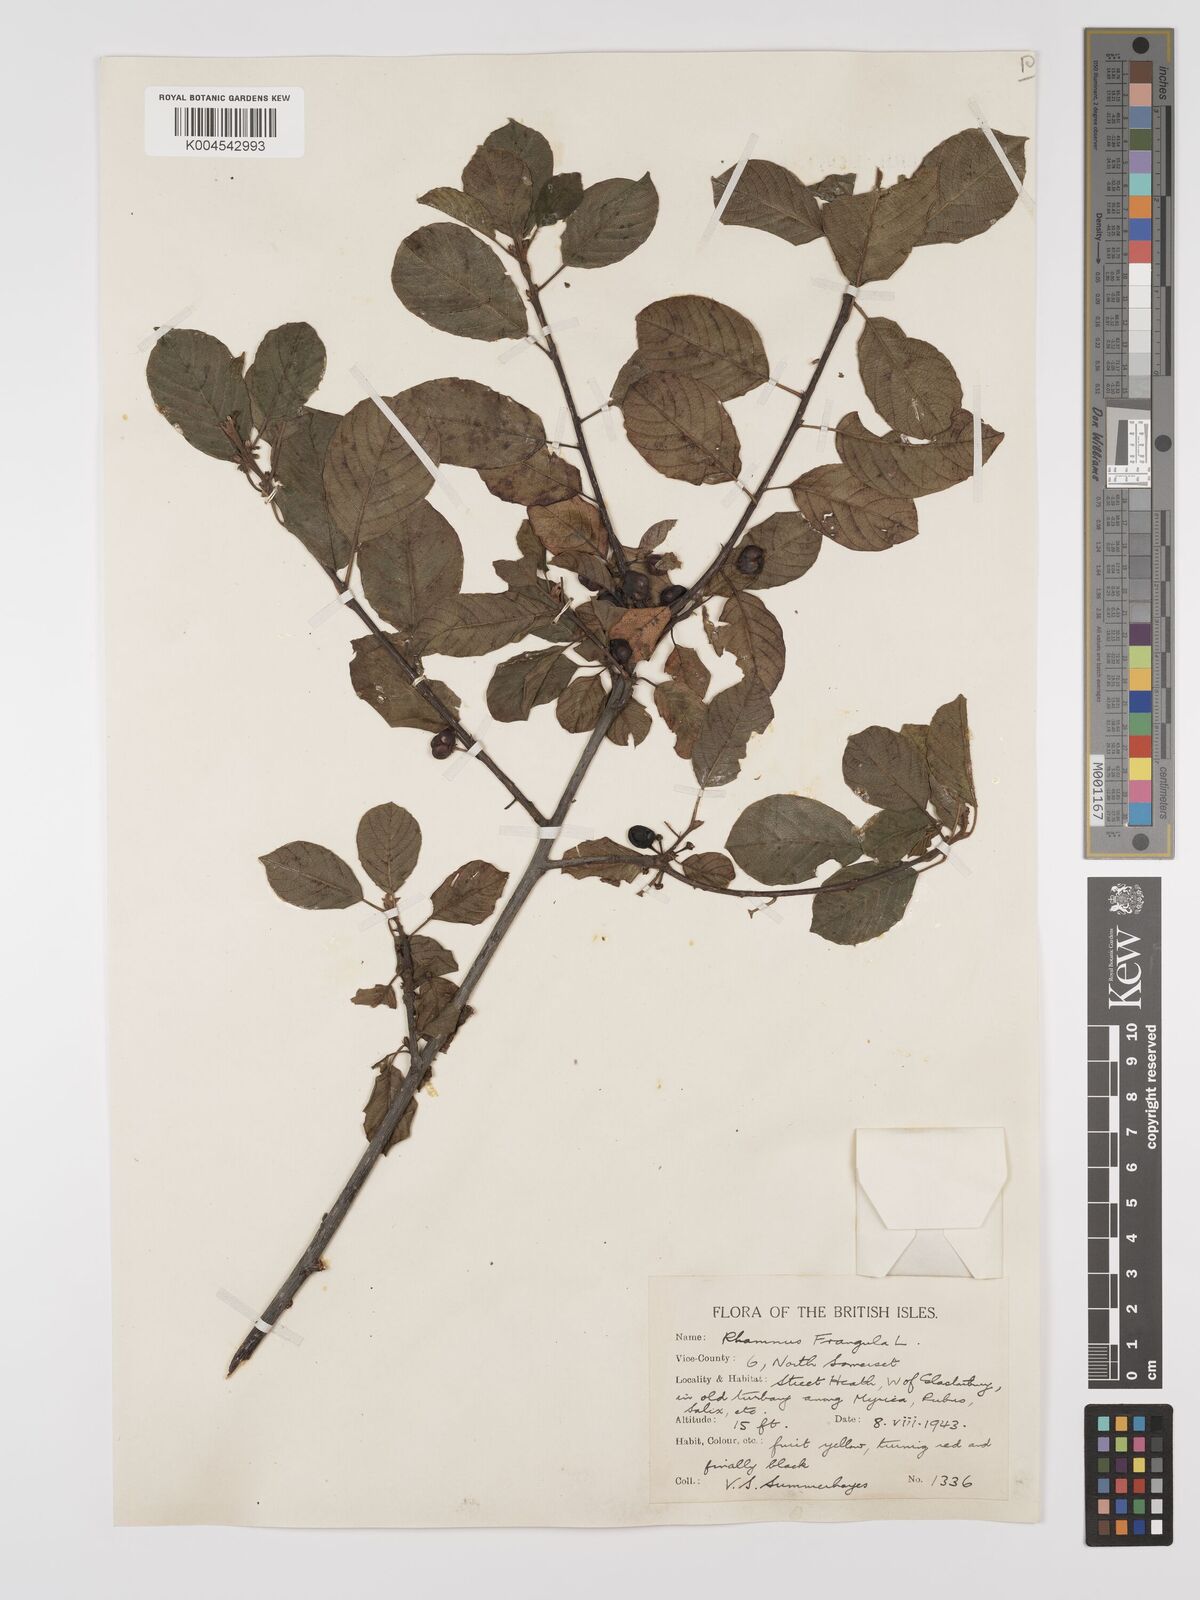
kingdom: Plantae
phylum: Tracheophyta
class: Magnoliopsida
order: Rosales
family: Rhamnaceae
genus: Frangula
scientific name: Frangula alnus
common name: Alder buckthorn
